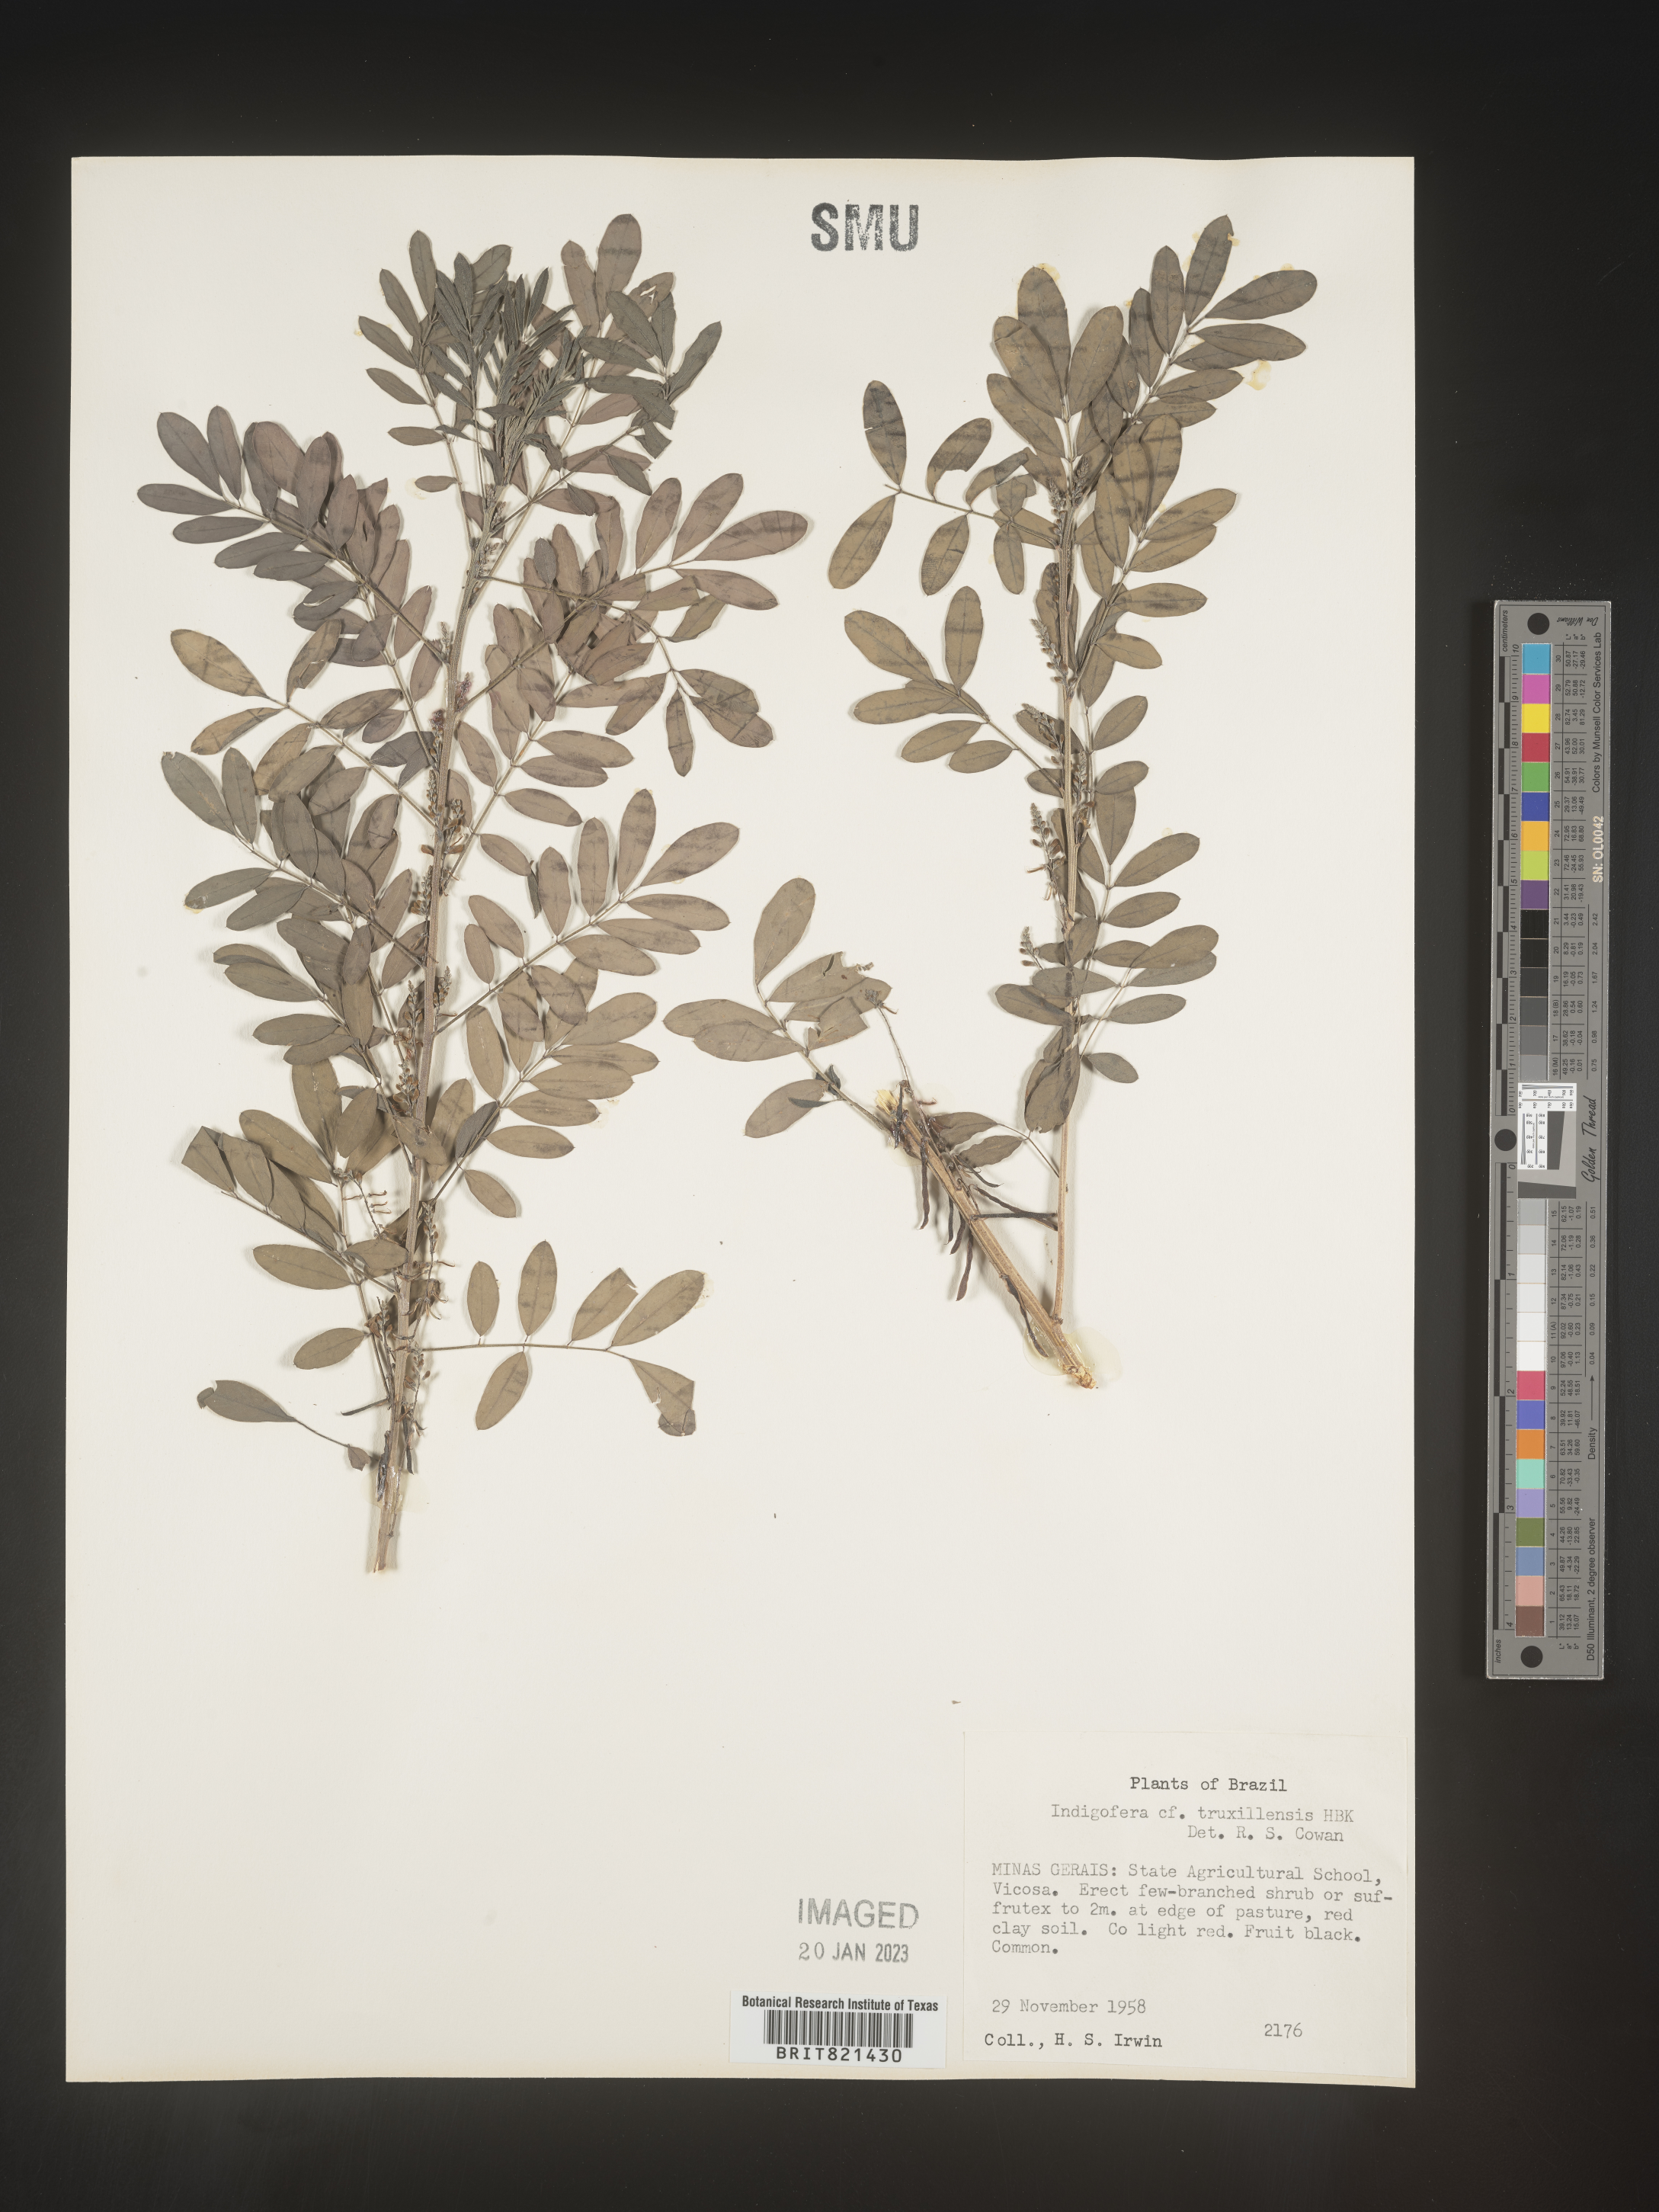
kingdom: Plantae
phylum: Tracheophyta
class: Magnoliopsida
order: Fabales
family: Fabaceae
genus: Indigofera
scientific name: Indigofera
